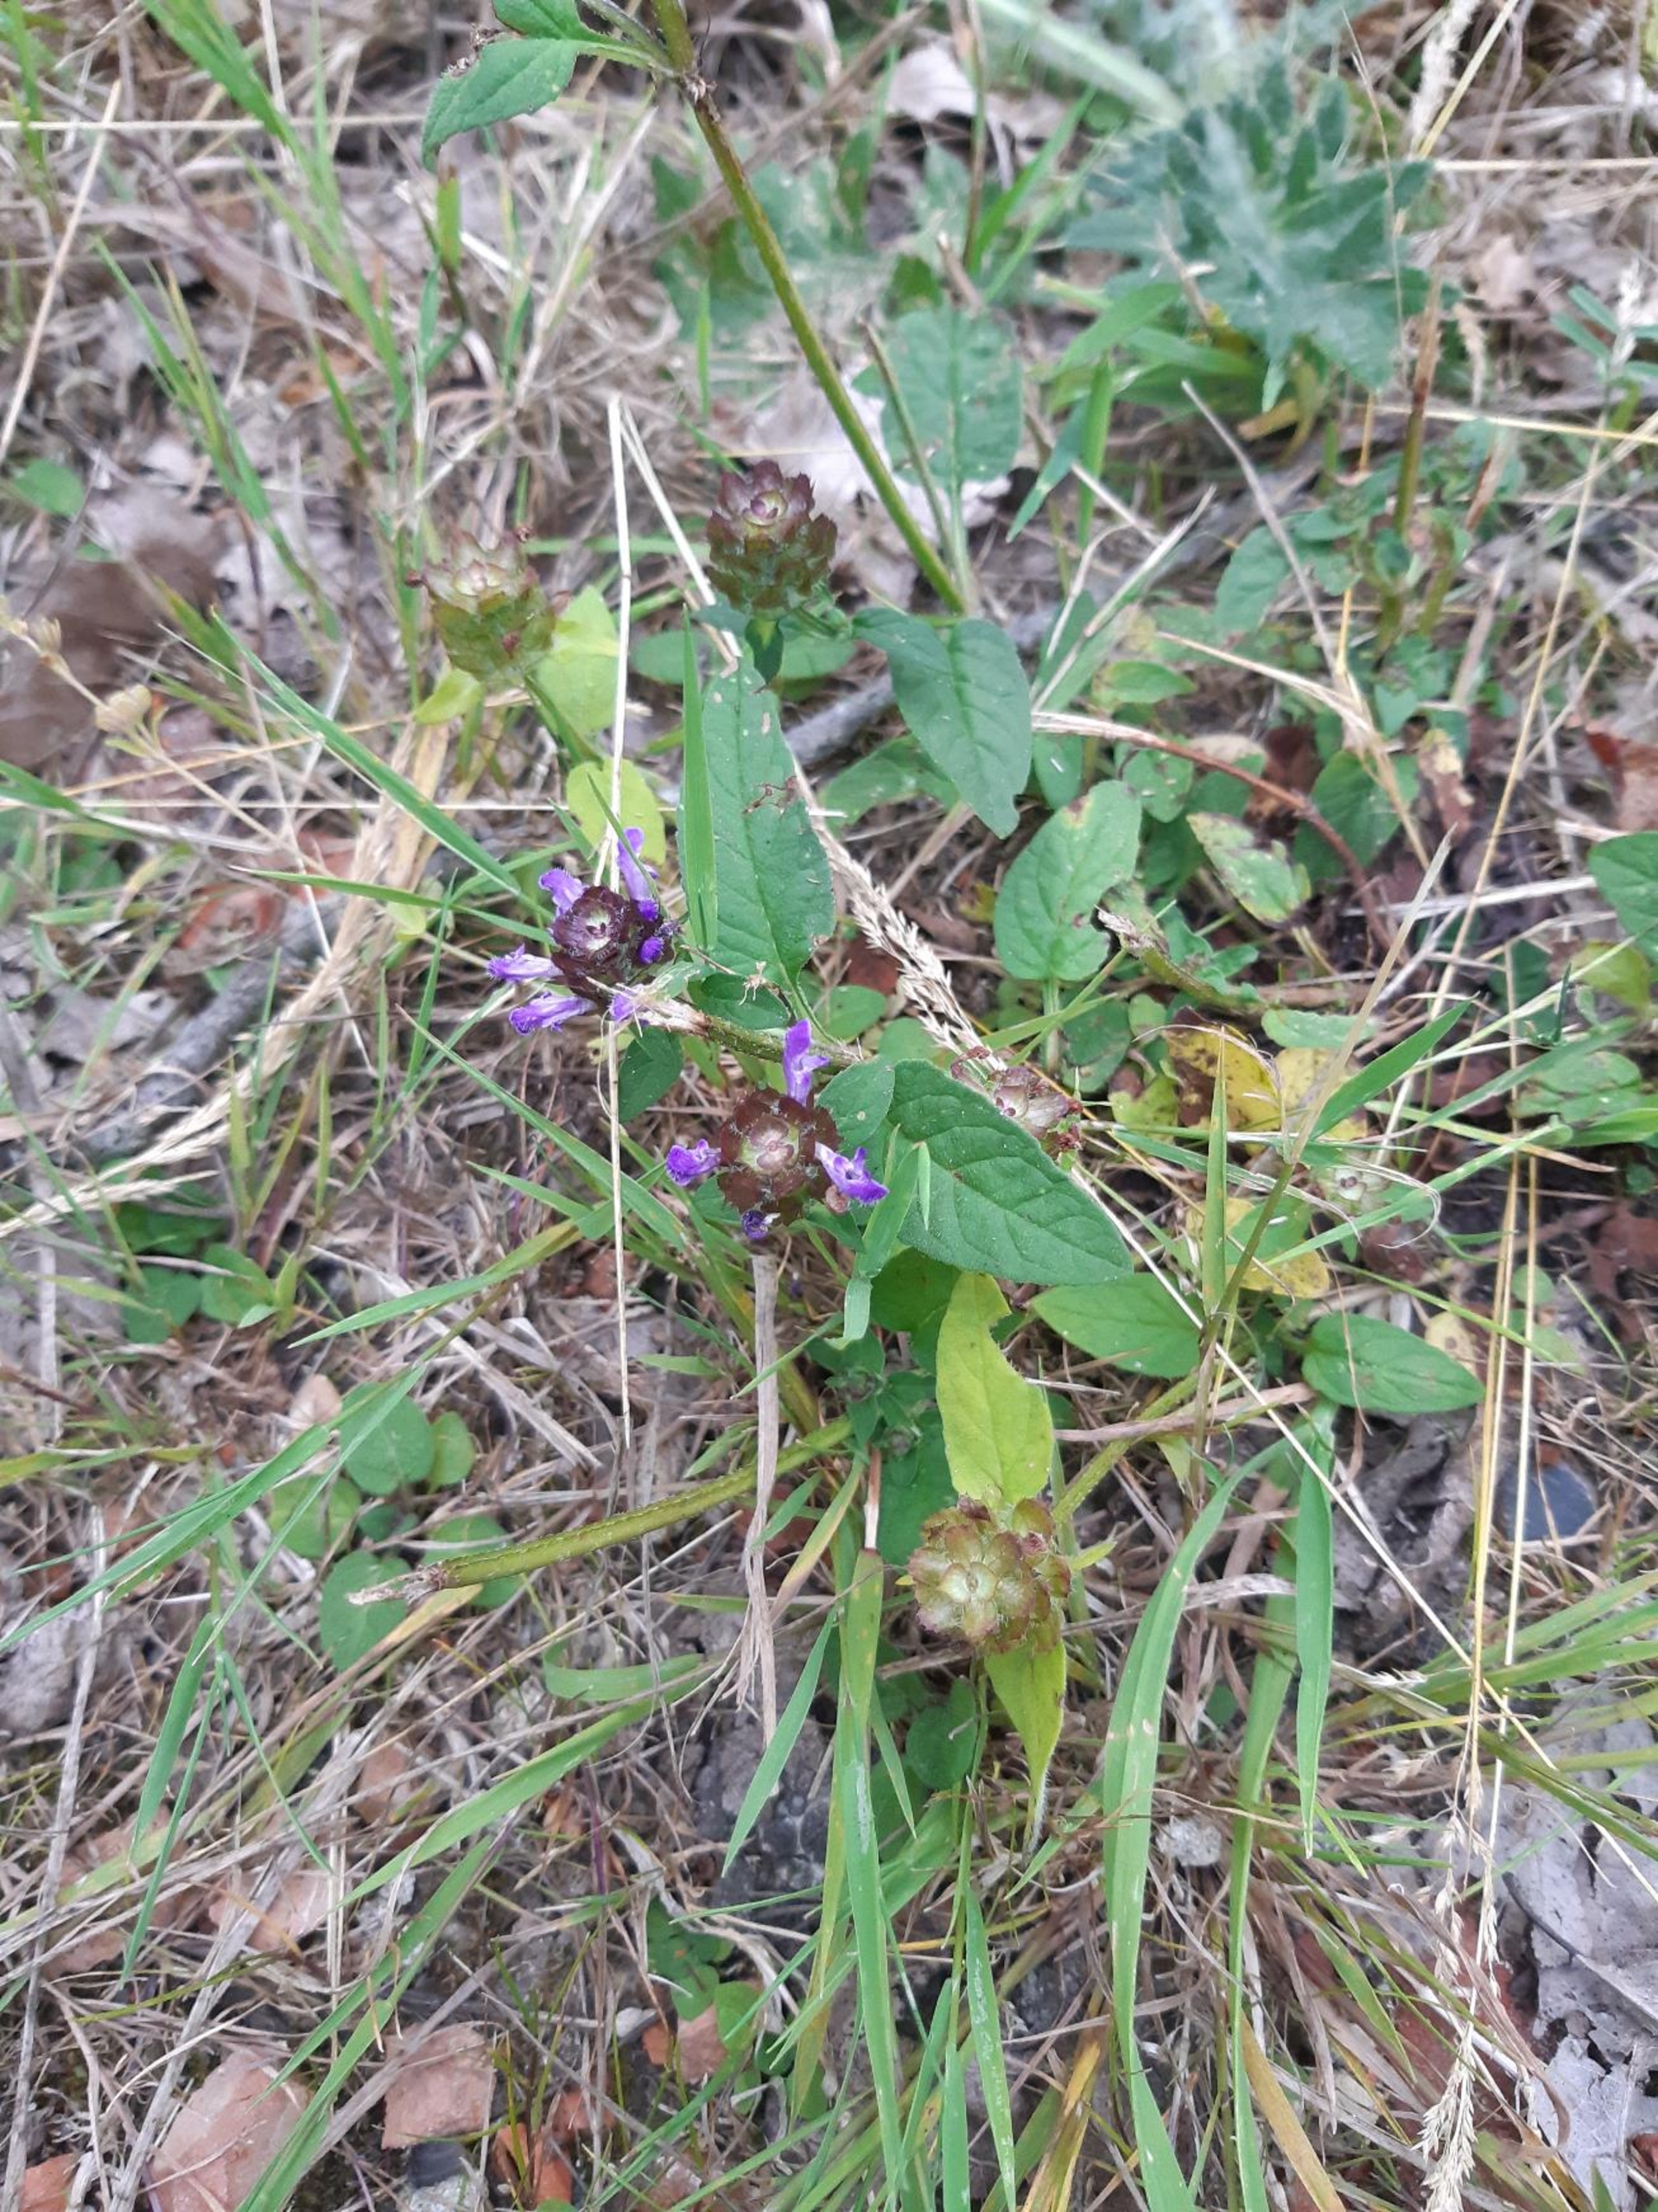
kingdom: Plantae
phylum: Tracheophyta
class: Magnoliopsida
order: Lamiales
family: Lamiaceae
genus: Prunella
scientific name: Prunella vulgaris
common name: Almindelig brunelle
